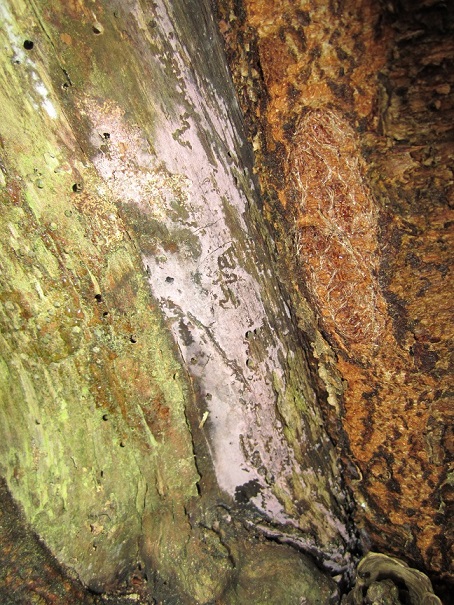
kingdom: Fungi
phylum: Basidiomycota
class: Agaricomycetes
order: Cantharellales
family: Tulasnellaceae
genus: Tulasnella
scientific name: Tulasnella violea
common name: violet ballonhinde
